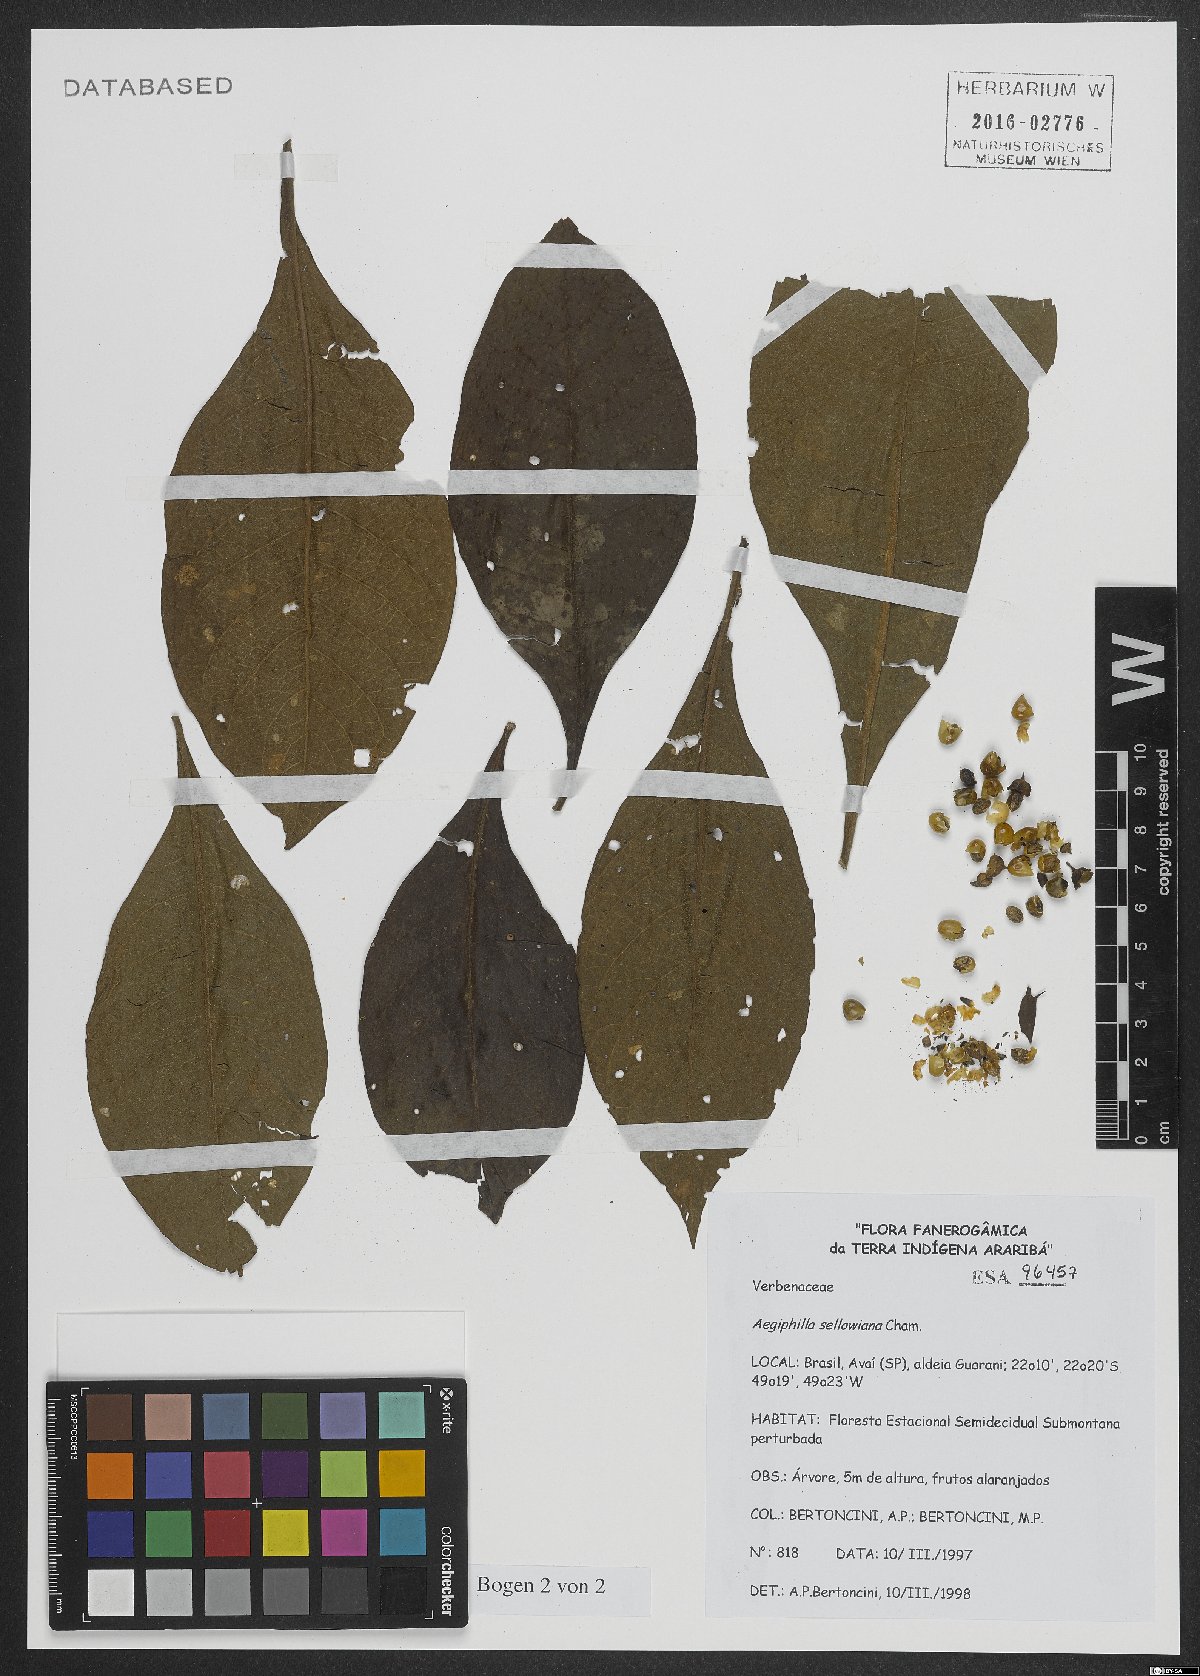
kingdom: Plantae
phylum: Tracheophyta
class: Magnoliopsida
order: Lamiales
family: Lamiaceae
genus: Aegiphila
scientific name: Aegiphila verticillata
